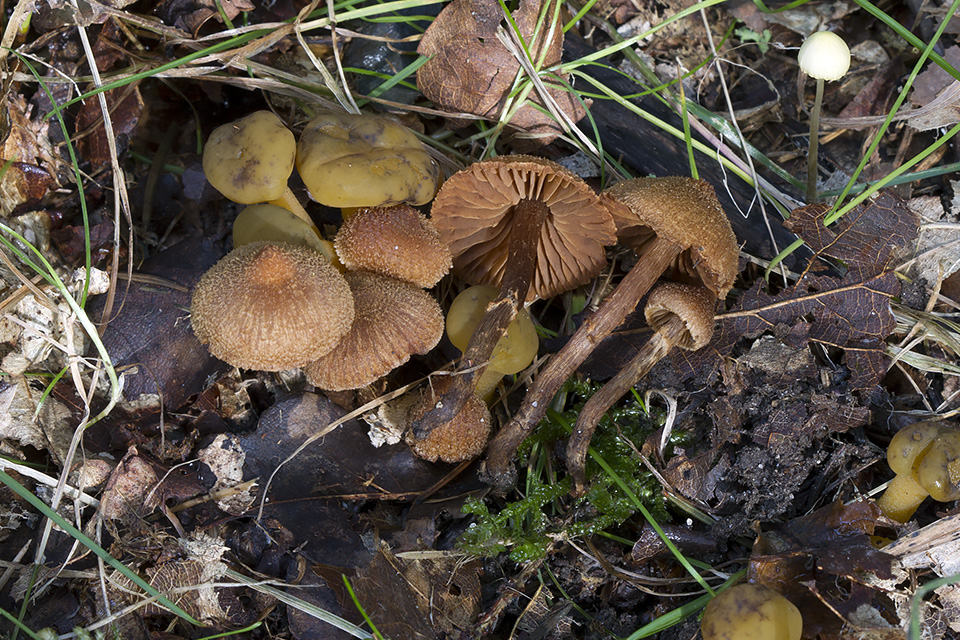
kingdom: Fungi
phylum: Basidiomycota
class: Agaricomycetes
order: Agaricales
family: Cortinariaceae
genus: Cortinarius
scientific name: Cortinarius quercoconicus
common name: agernskål-slørhat
